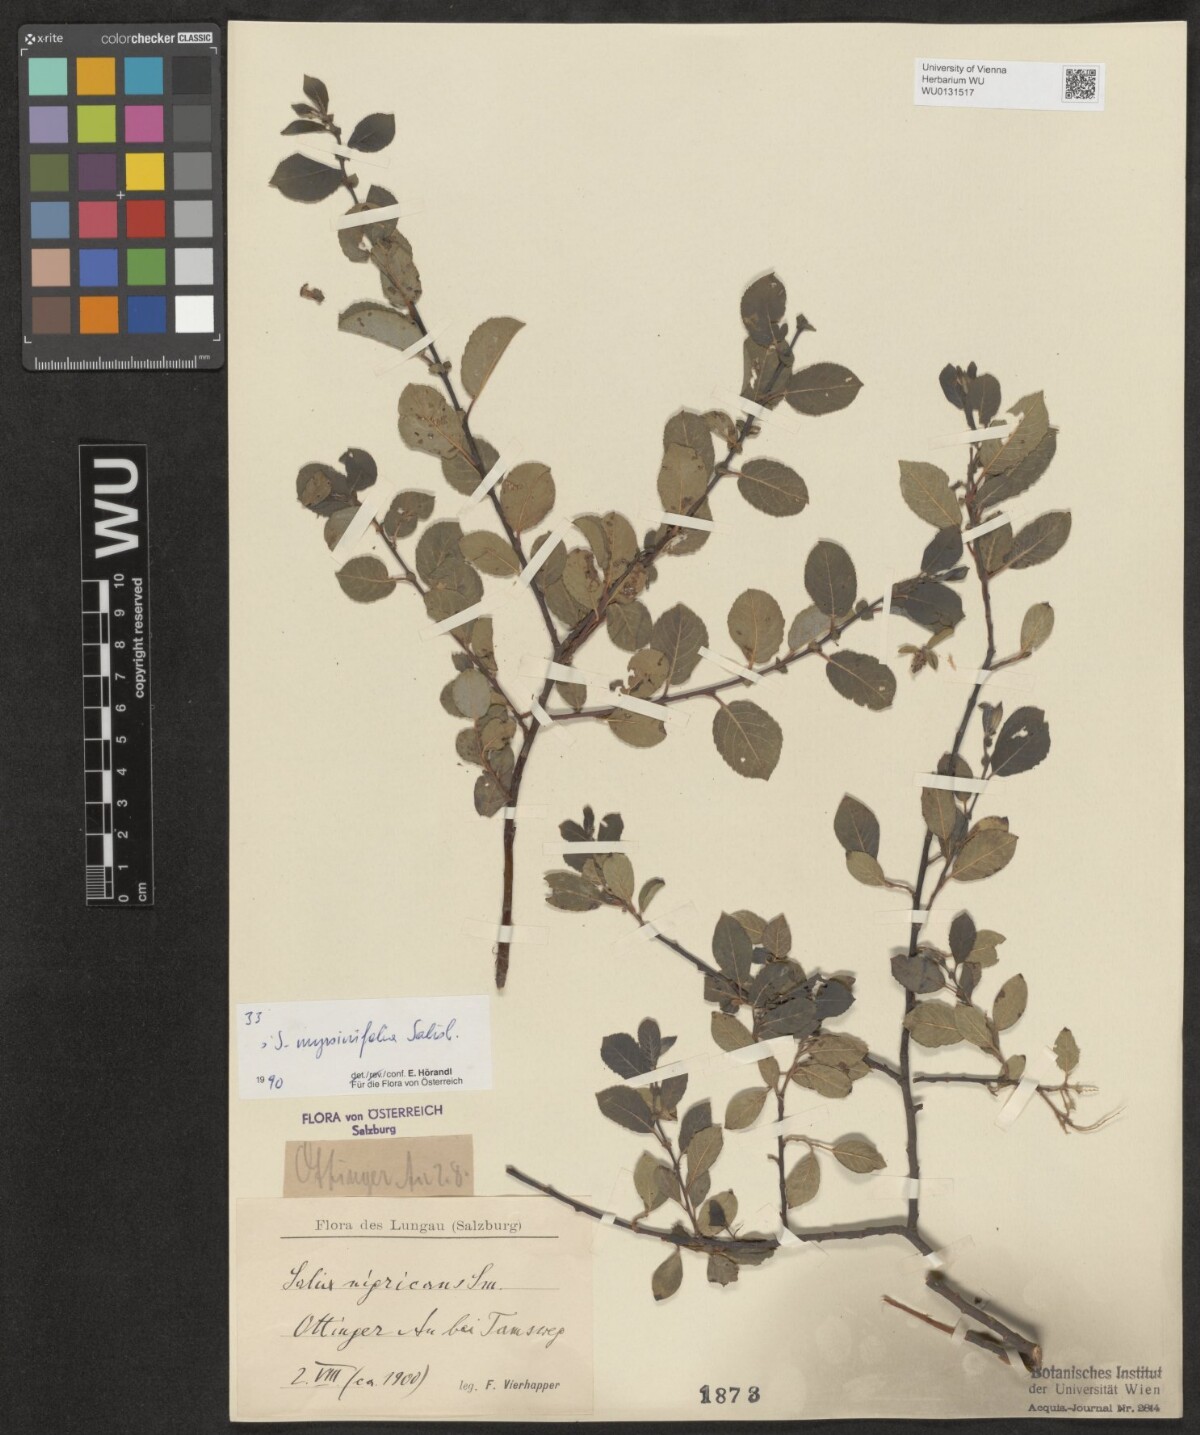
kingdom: Plantae
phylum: Tracheophyta
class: Magnoliopsida
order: Malpighiales
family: Salicaceae
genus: Salix
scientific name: Salix myrsinifolia
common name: Dark-leaved willow
